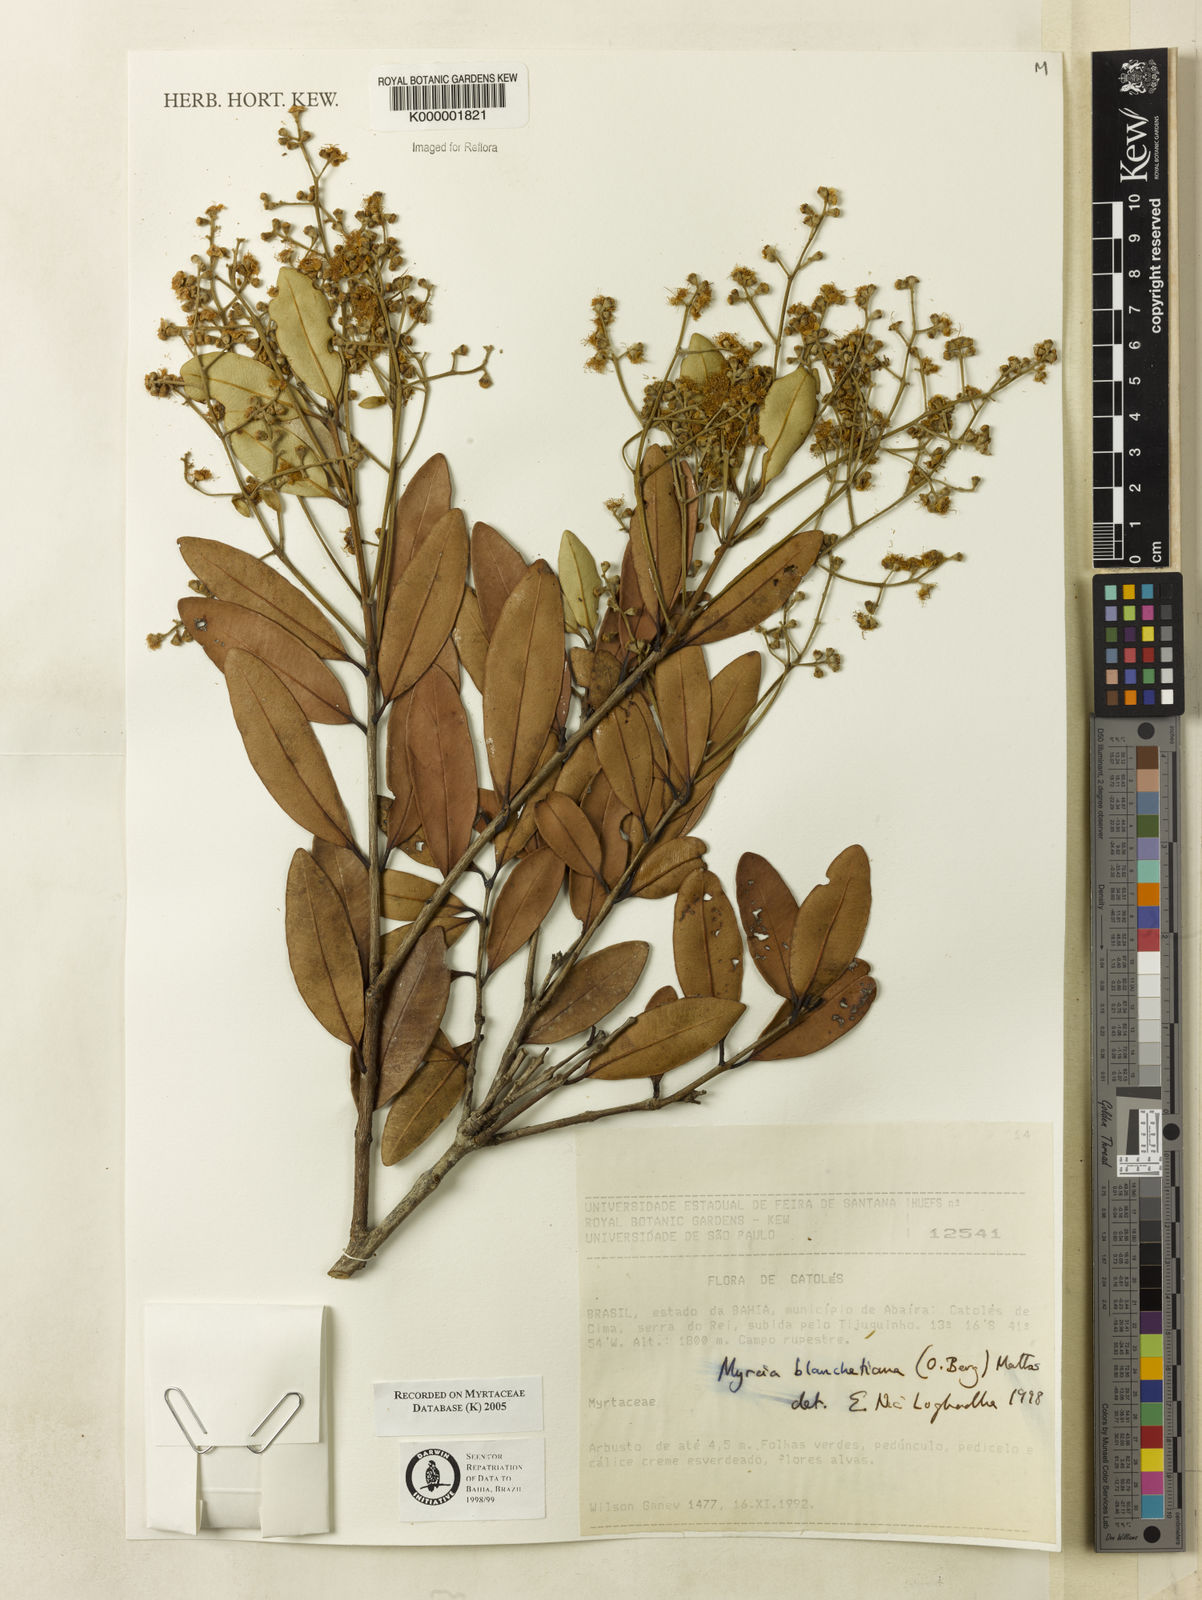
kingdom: Plantae
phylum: Tracheophyta
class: Magnoliopsida
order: Myrtales
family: Myrtaceae
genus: Myrcia
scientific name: Myrcia blanchetiana
